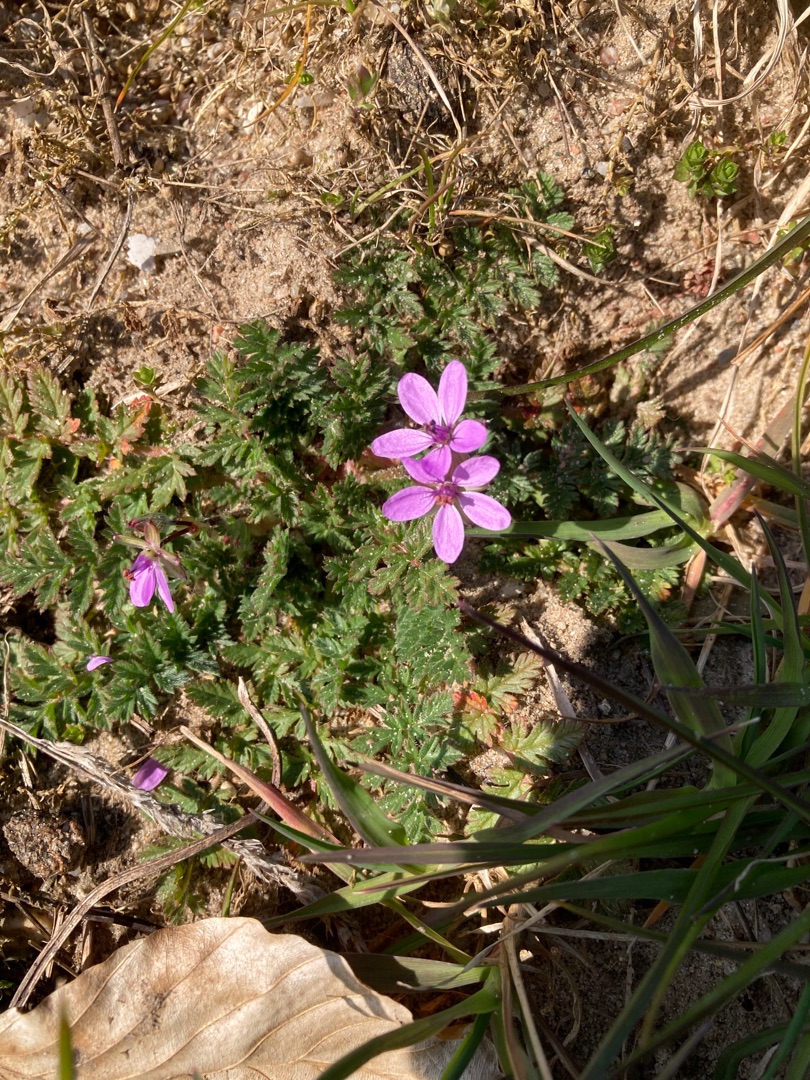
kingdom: Plantae
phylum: Tracheophyta
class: Magnoliopsida
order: Geraniales
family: Geraniaceae
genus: Erodium
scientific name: Erodium cicutarium
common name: Hejrenæb
